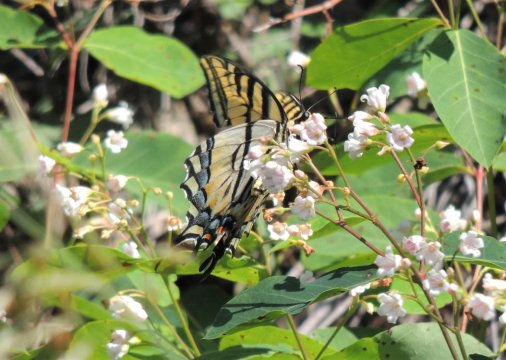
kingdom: Animalia
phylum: Arthropoda
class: Insecta
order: Lepidoptera
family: Papilionidae
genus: Papilio
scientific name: Papilio multicaudata
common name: Two-tailed Swallowtail
